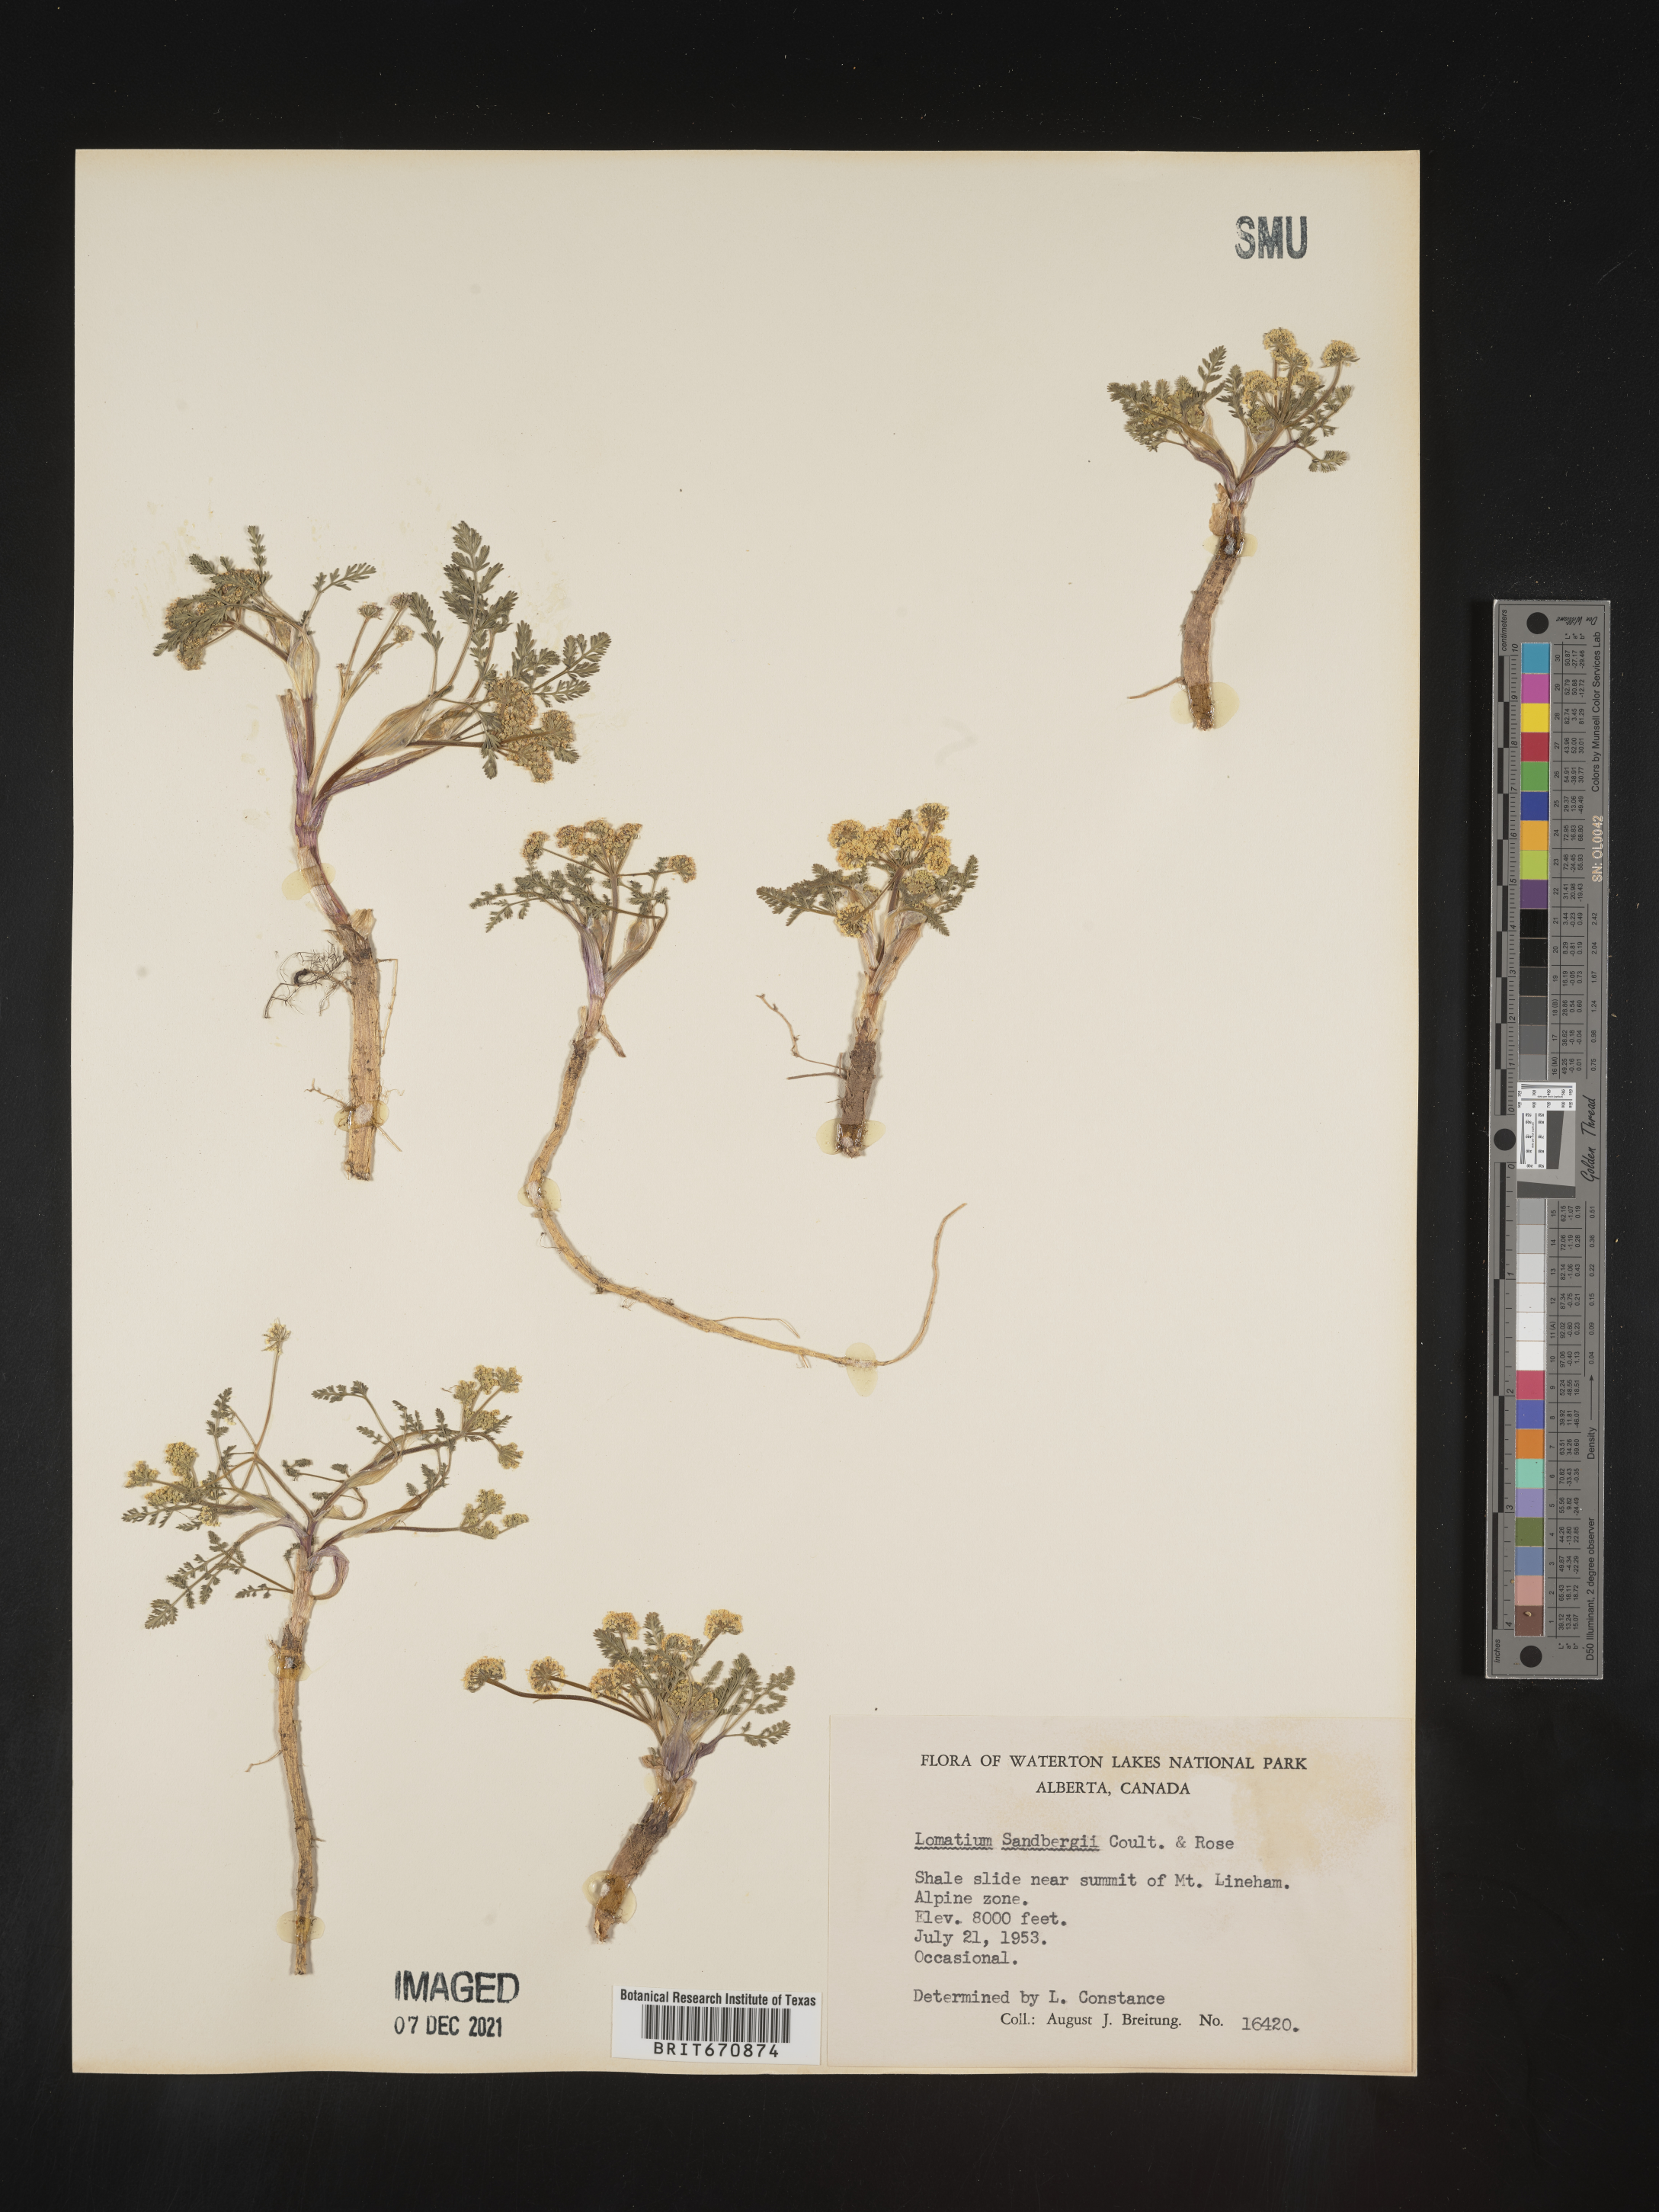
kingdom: Plantae
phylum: Tracheophyta
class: Magnoliopsida
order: Apiales
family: Apiaceae
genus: Lomatium
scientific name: Lomatium
